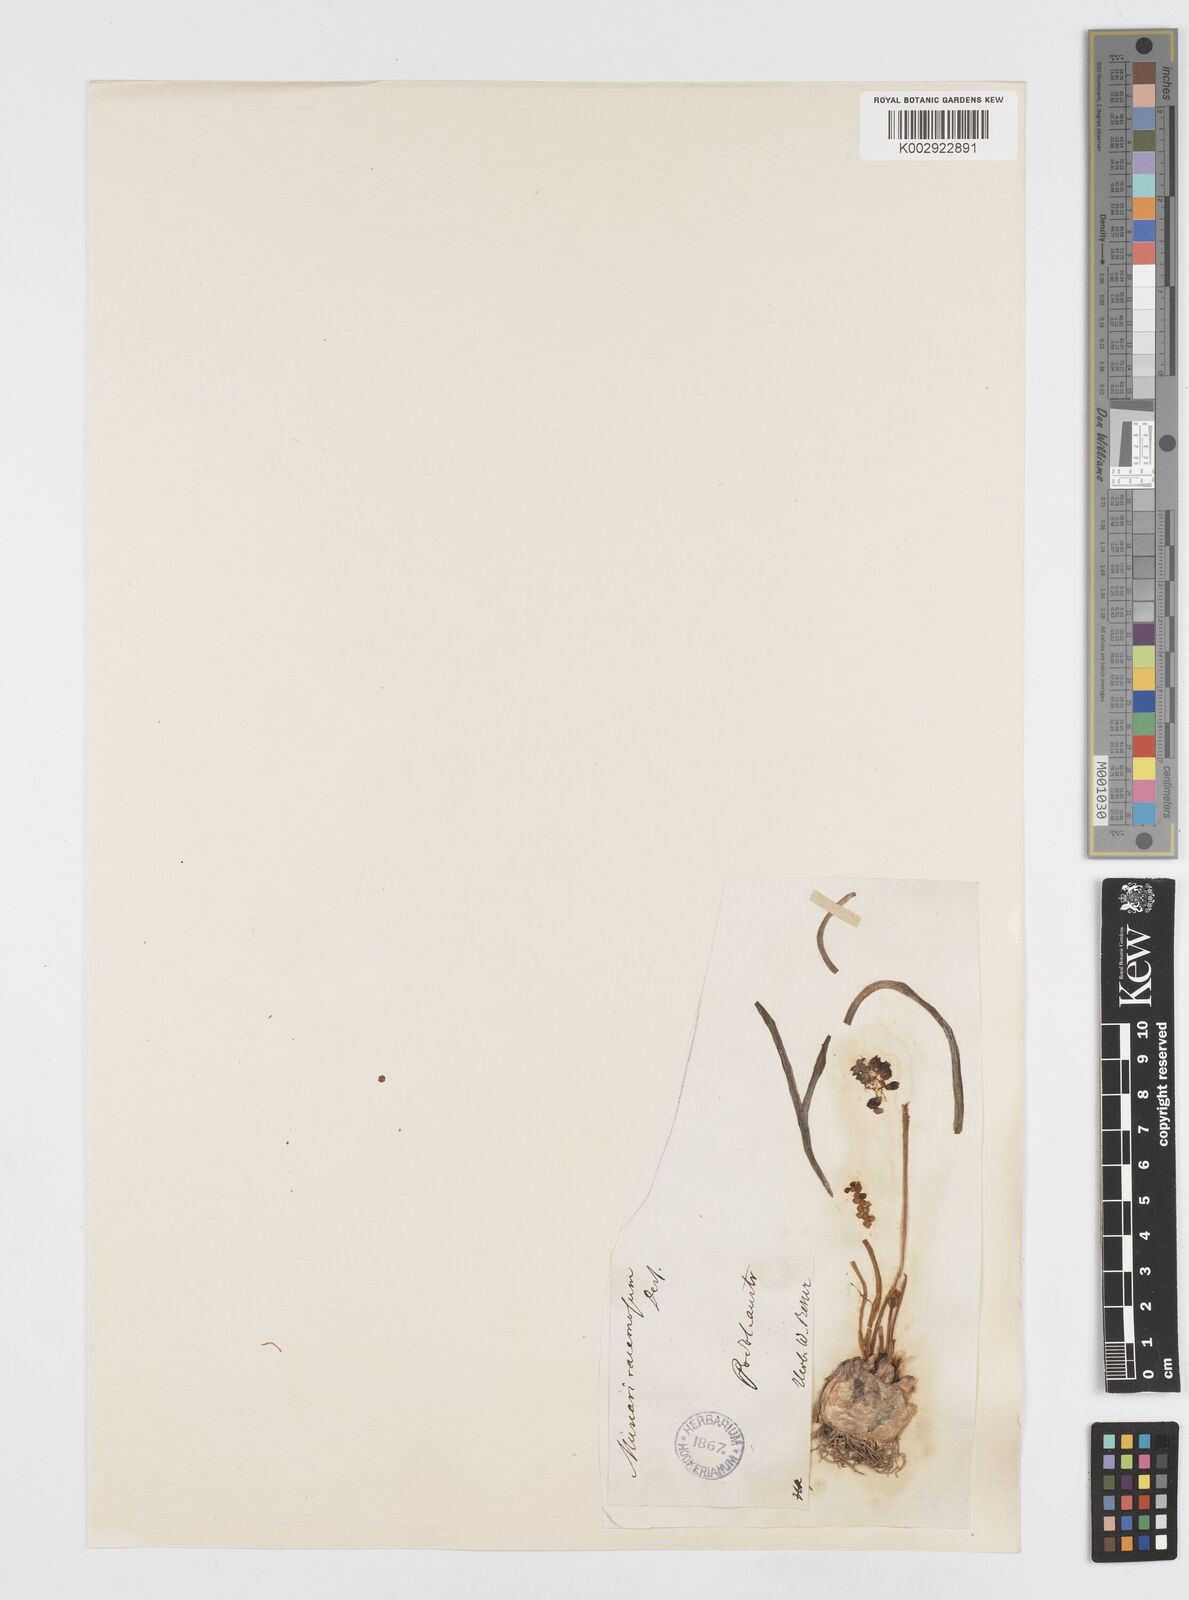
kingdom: Plantae
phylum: Tracheophyta
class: Liliopsida
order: Asparagales
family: Asparagaceae
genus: Muscari
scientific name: Muscari
